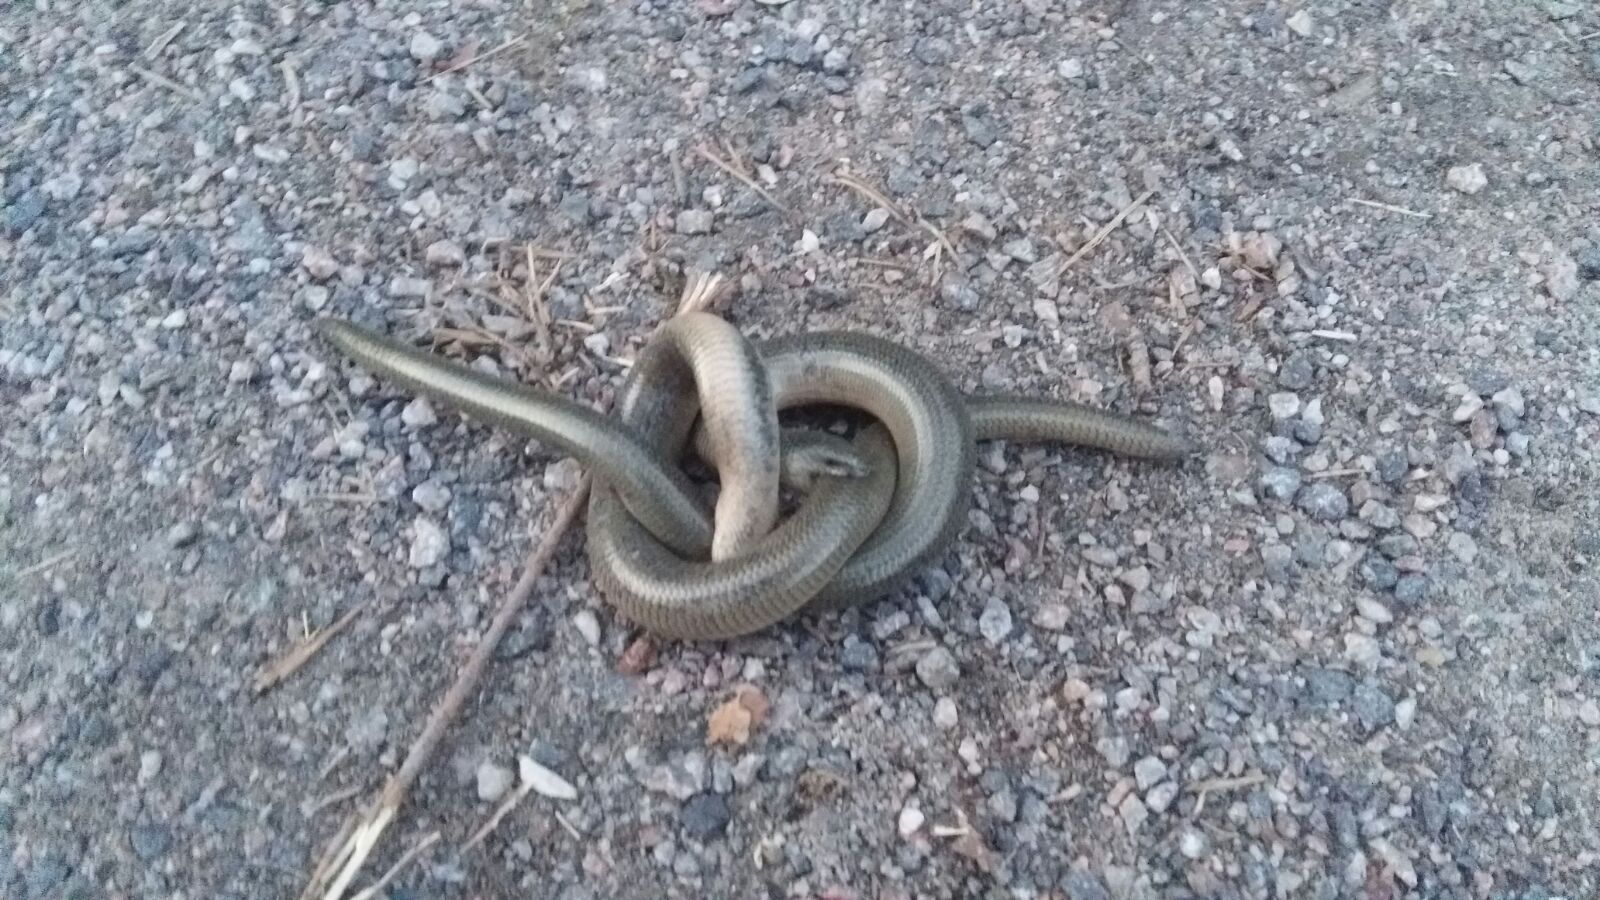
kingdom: Animalia
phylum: Chordata
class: Squamata
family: Anguidae
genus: Anguis
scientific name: Anguis colchica
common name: Slow worm
